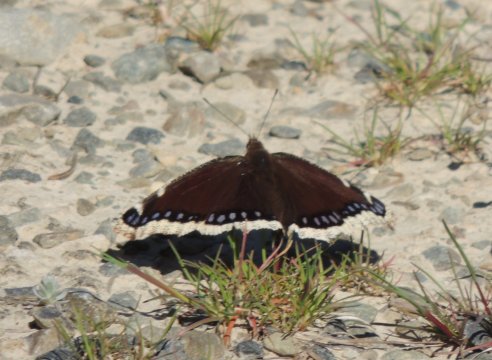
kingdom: Animalia
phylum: Arthropoda
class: Insecta
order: Lepidoptera
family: Nymphalidae
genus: Nymphalis
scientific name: Nymphalis antiopa
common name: Mourning Cloak
